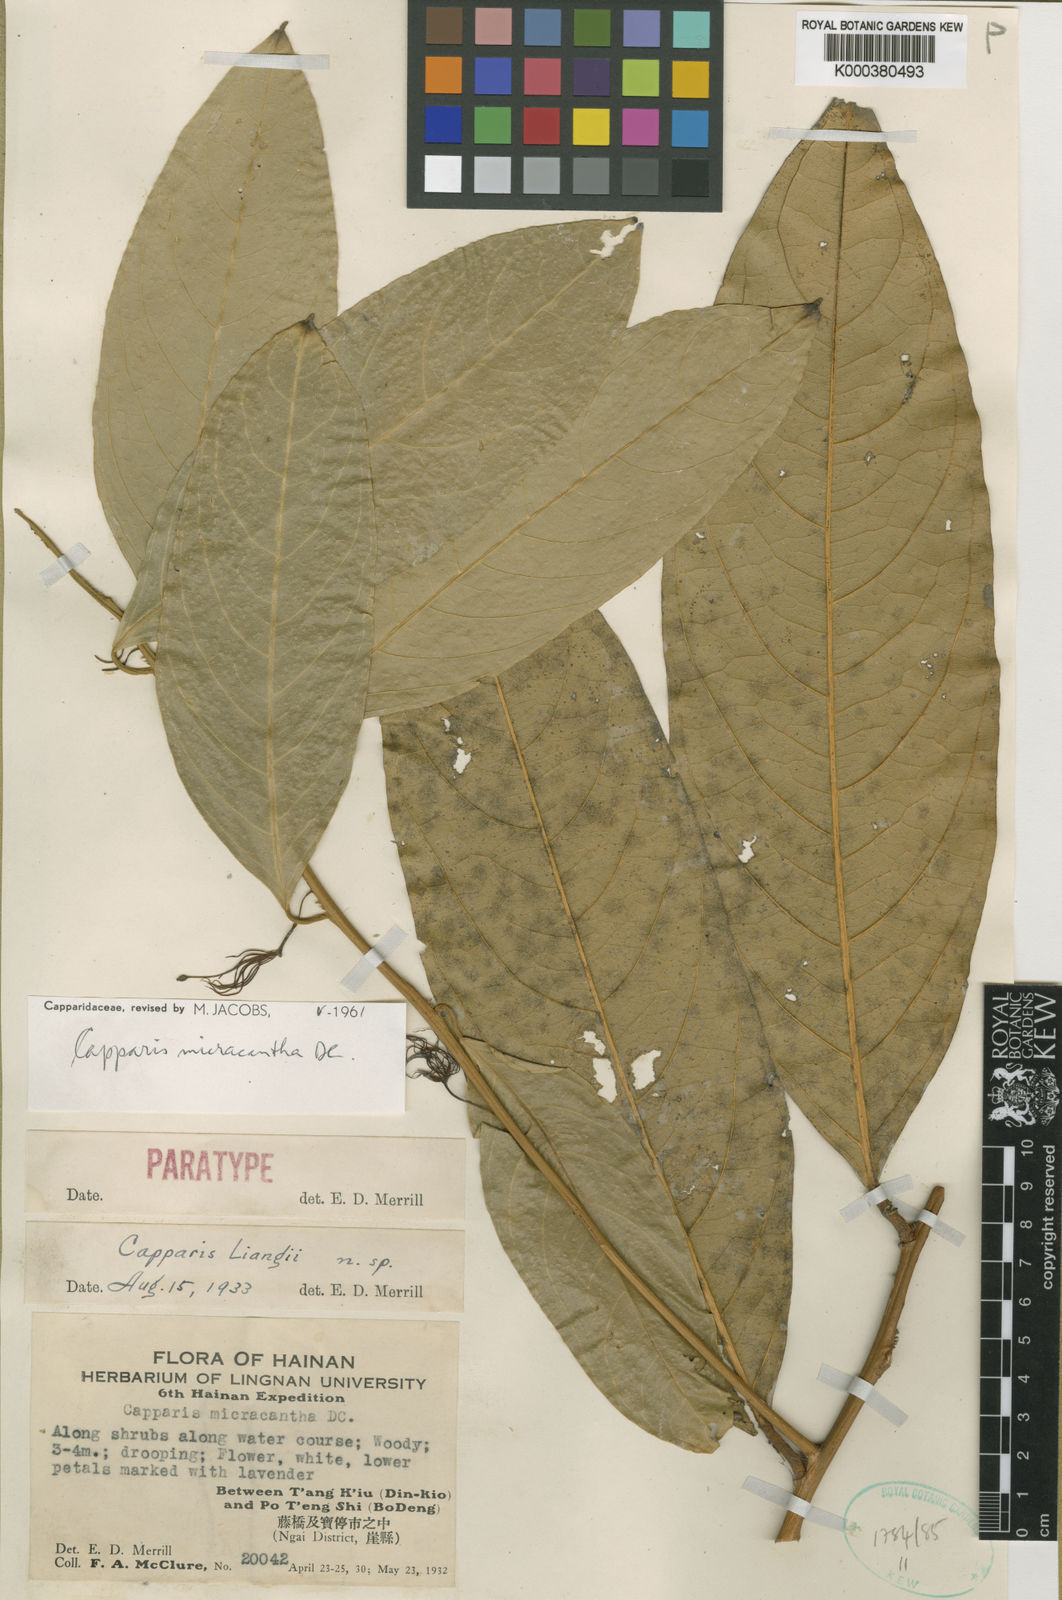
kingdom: Plantae
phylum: Tracheophyta
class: Magnoliopsida
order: Brassicales
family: Capparaceae
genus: Capparis
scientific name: Capparis micrantha
